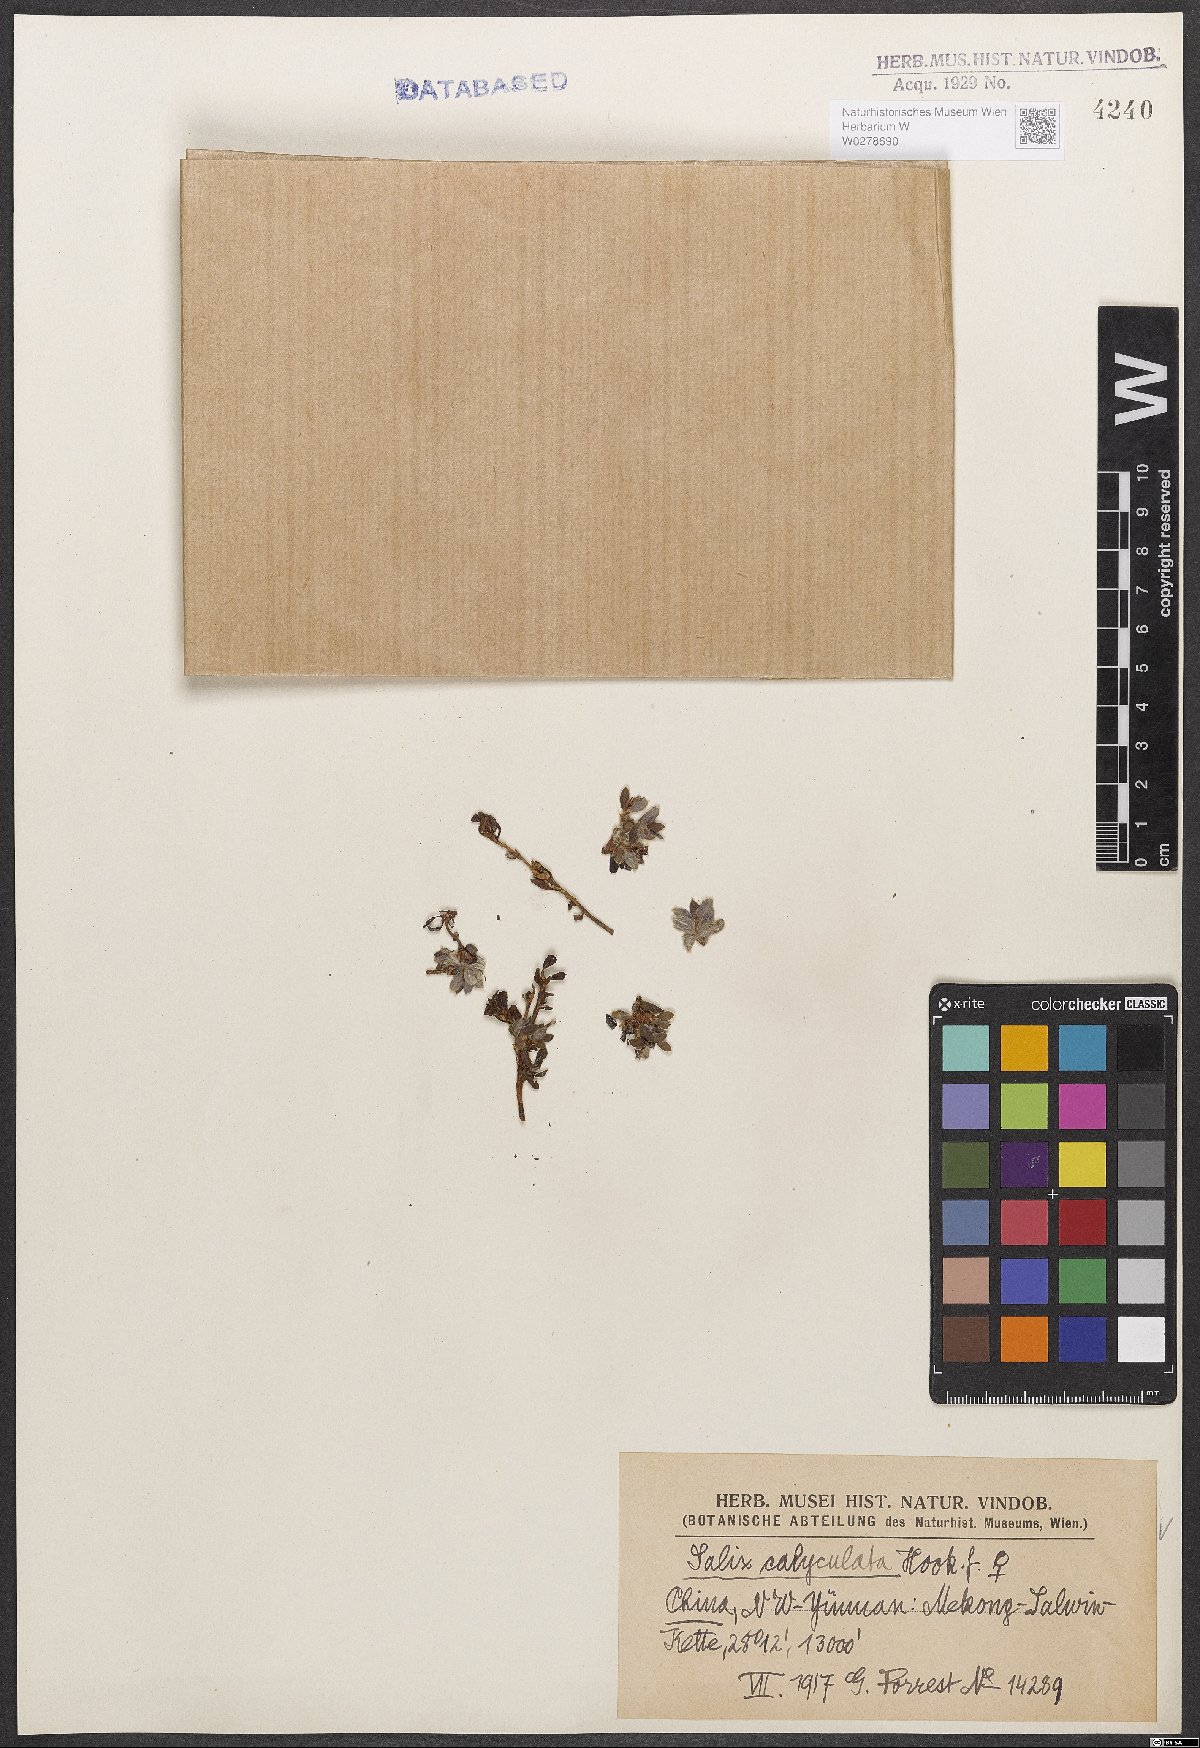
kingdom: Plantae
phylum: Tracheophyta
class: Magnoliopsida
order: Malpighiales
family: Salicaceae
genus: Salix
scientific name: Salix calyculata
